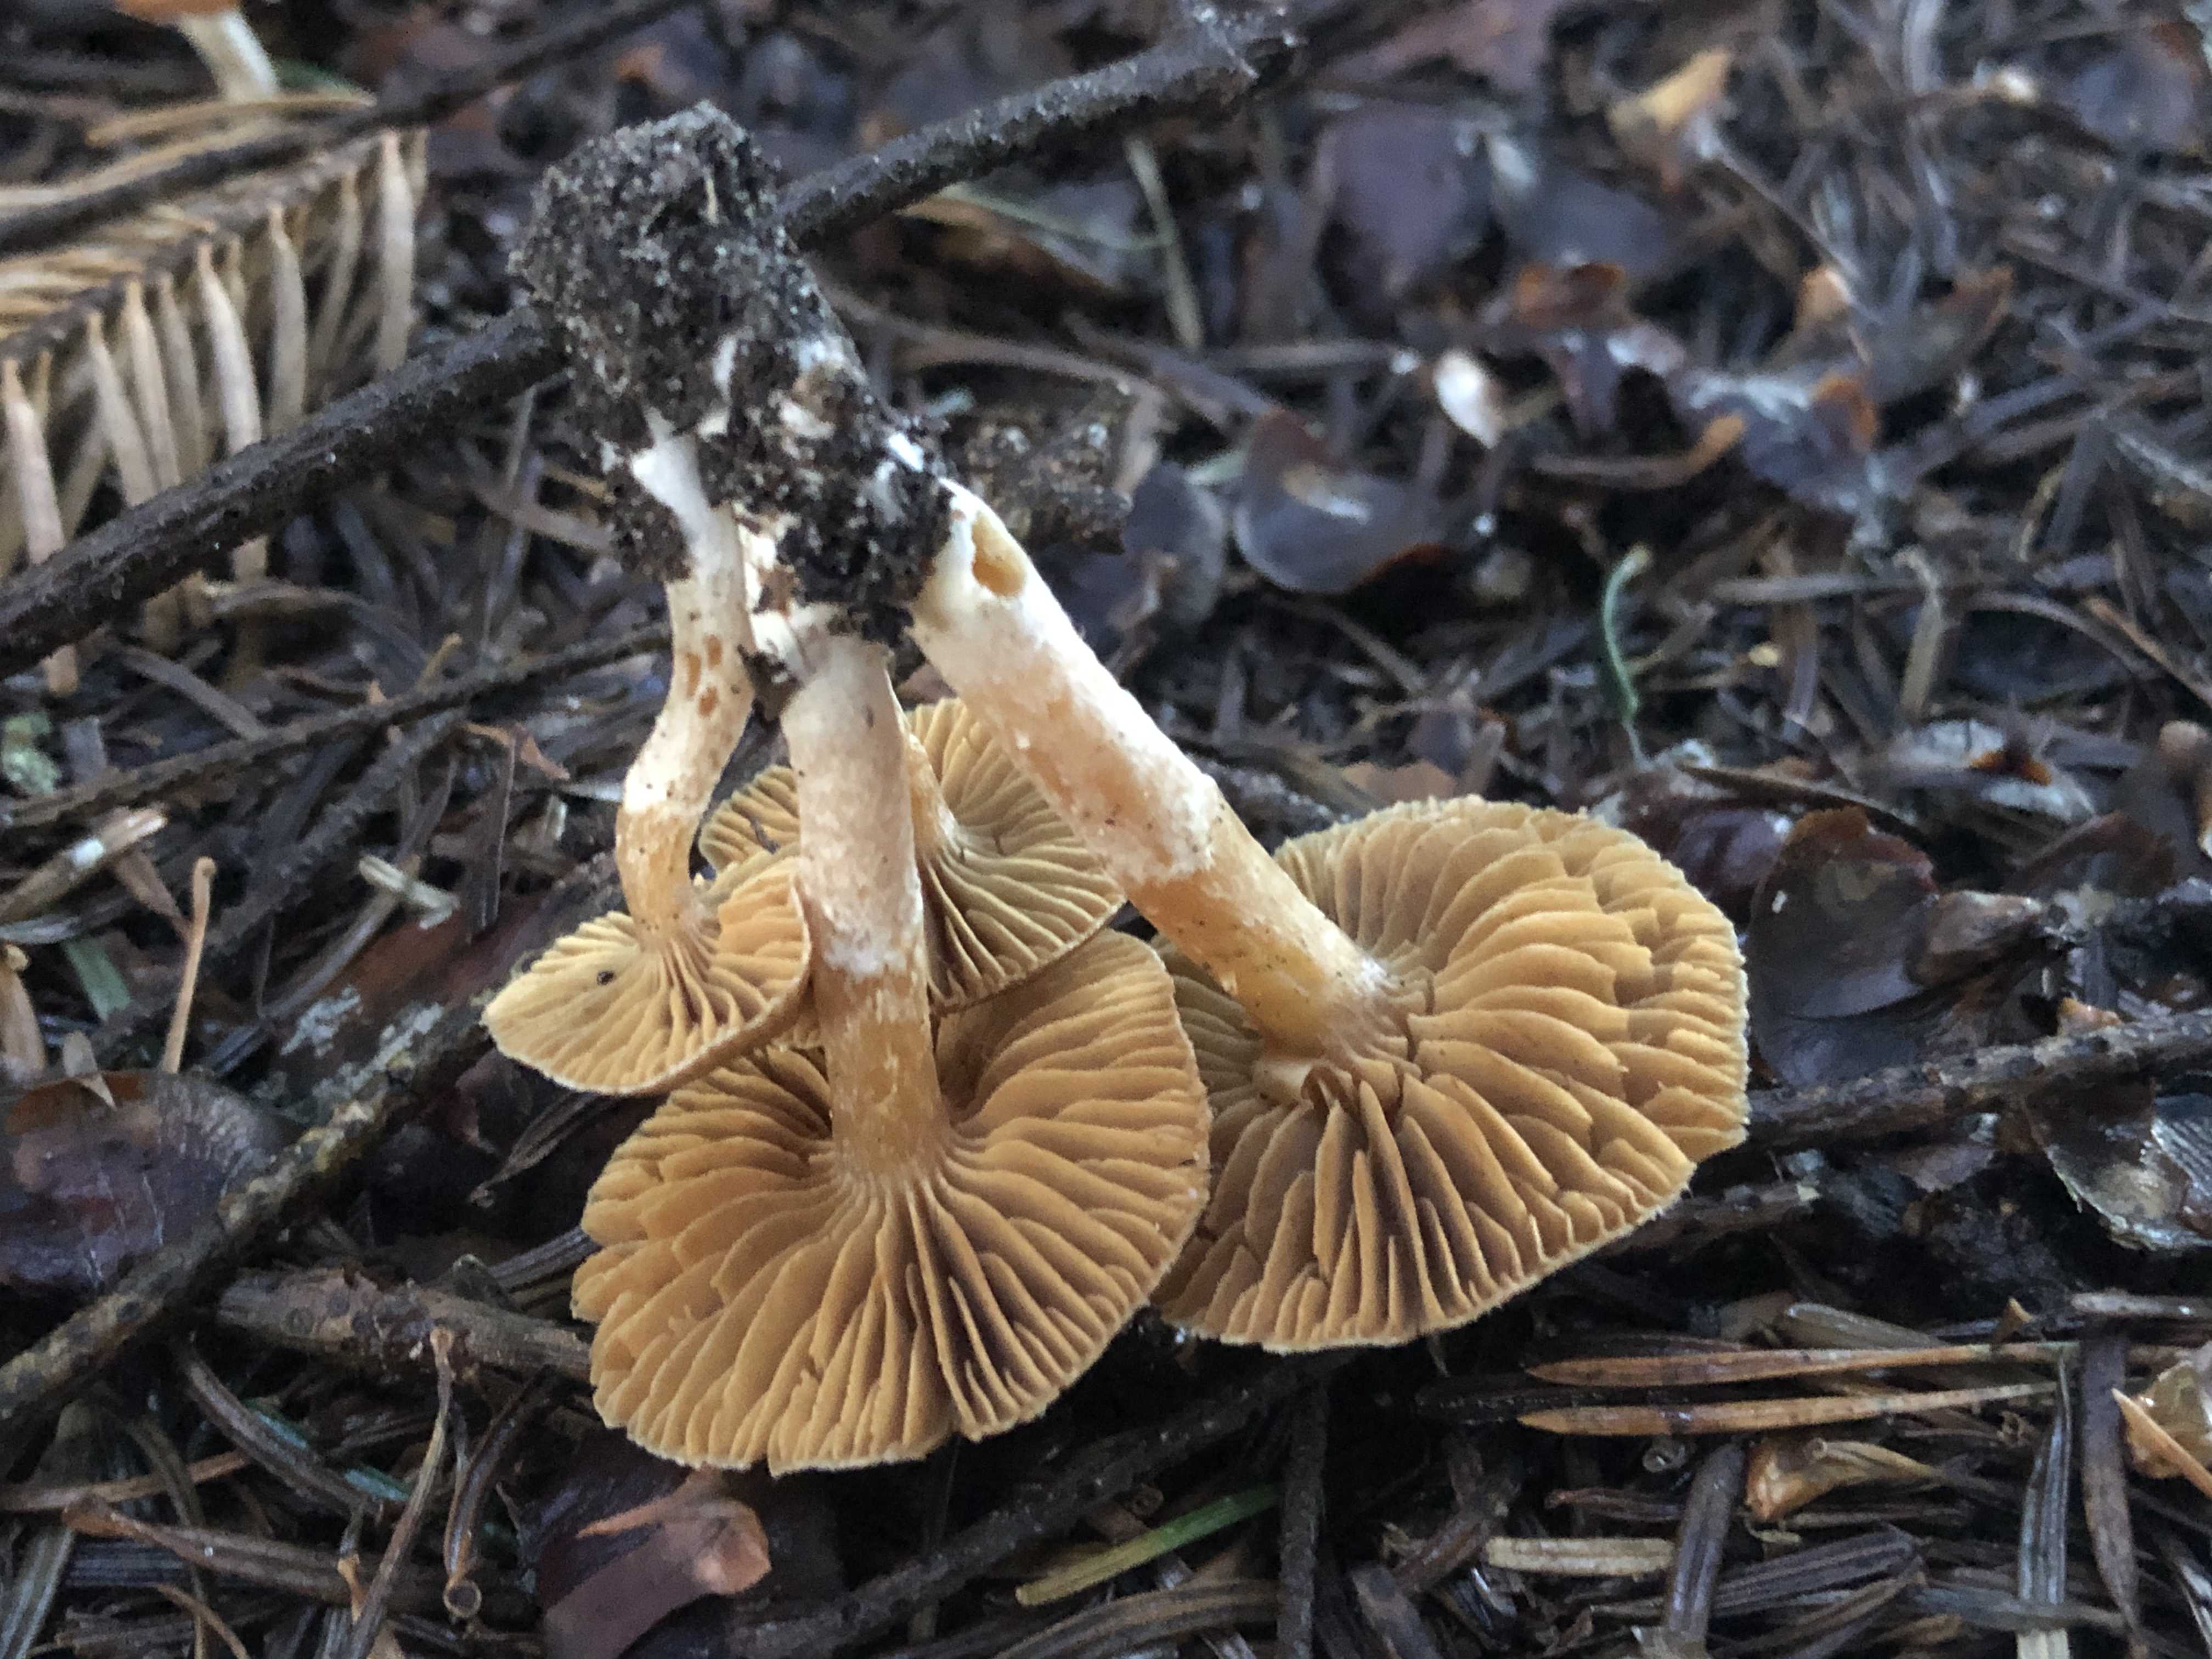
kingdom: Fungi
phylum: Basidiomycota
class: Agaricomycetes
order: Agaricales
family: Cortinariaceae
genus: Cortinarius
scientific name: Cortinarius
